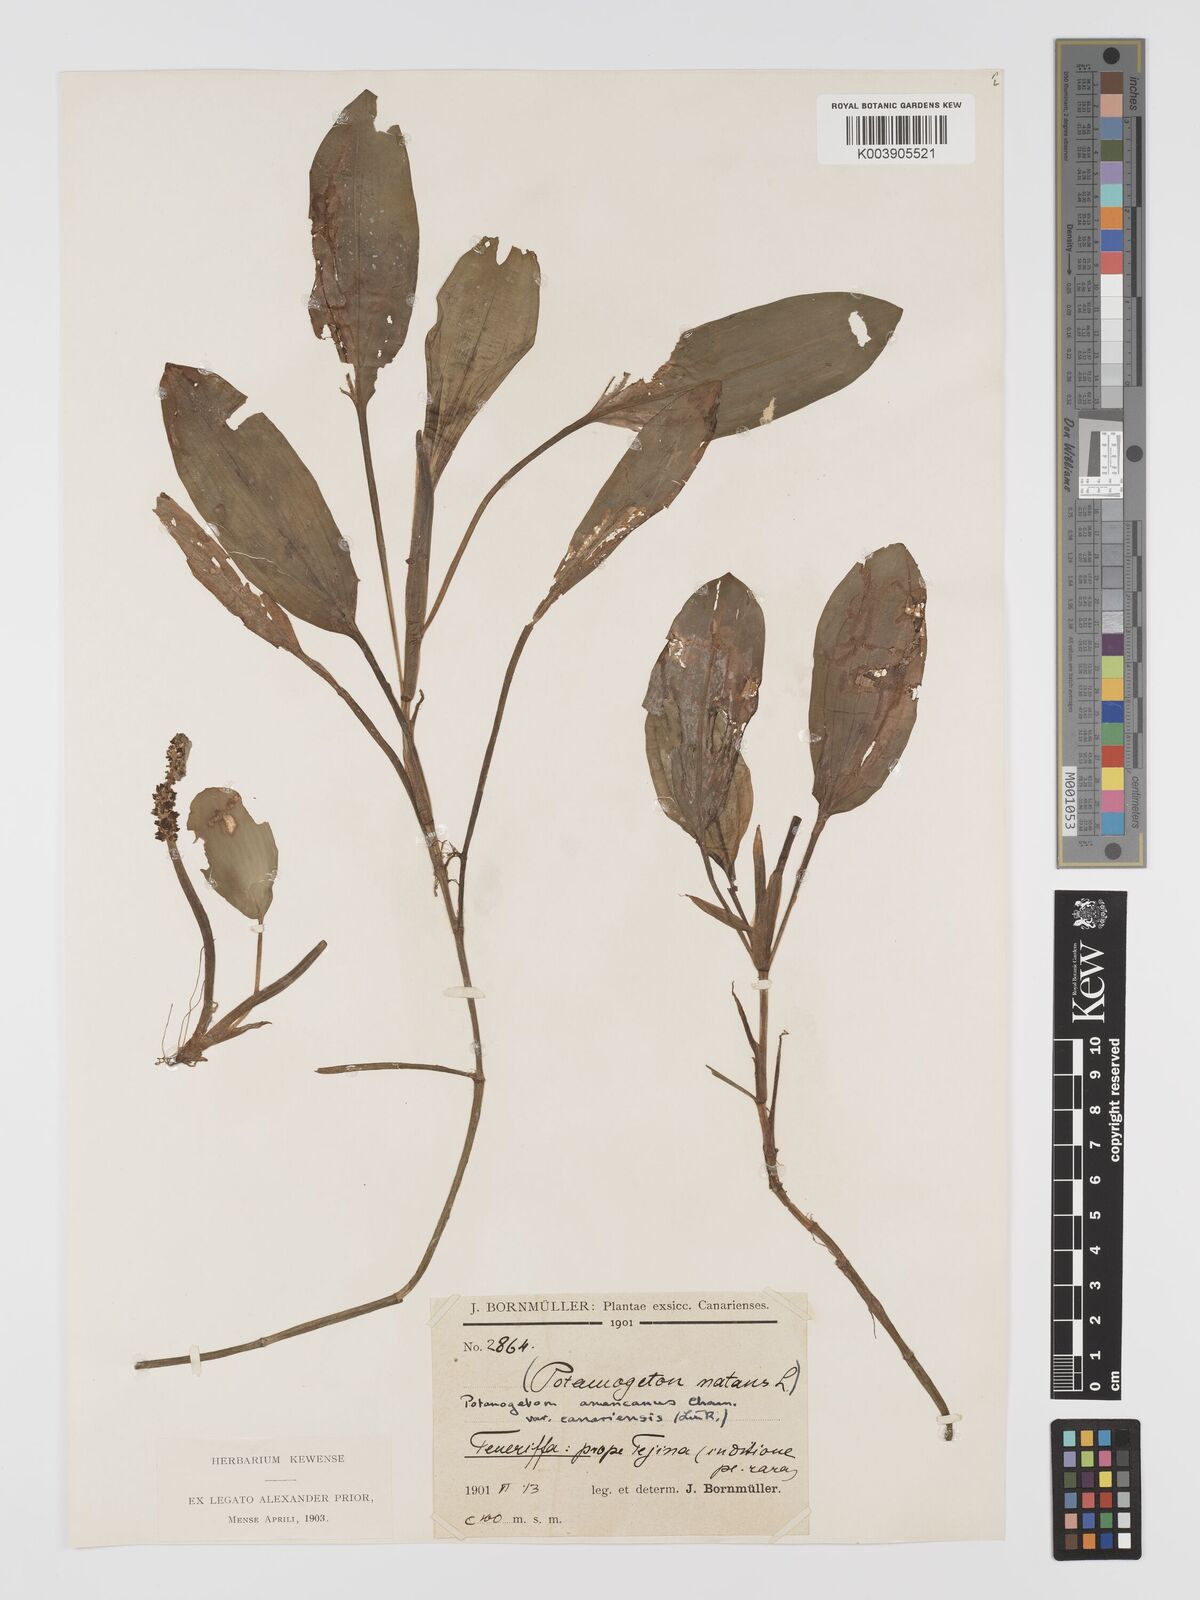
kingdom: Plantae
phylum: Tracheophyta
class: Liliopsida
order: Alismatales
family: Potamogetonaceae
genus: Potamogeton
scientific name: Potamogeton nodosus
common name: Loddon pondweed
